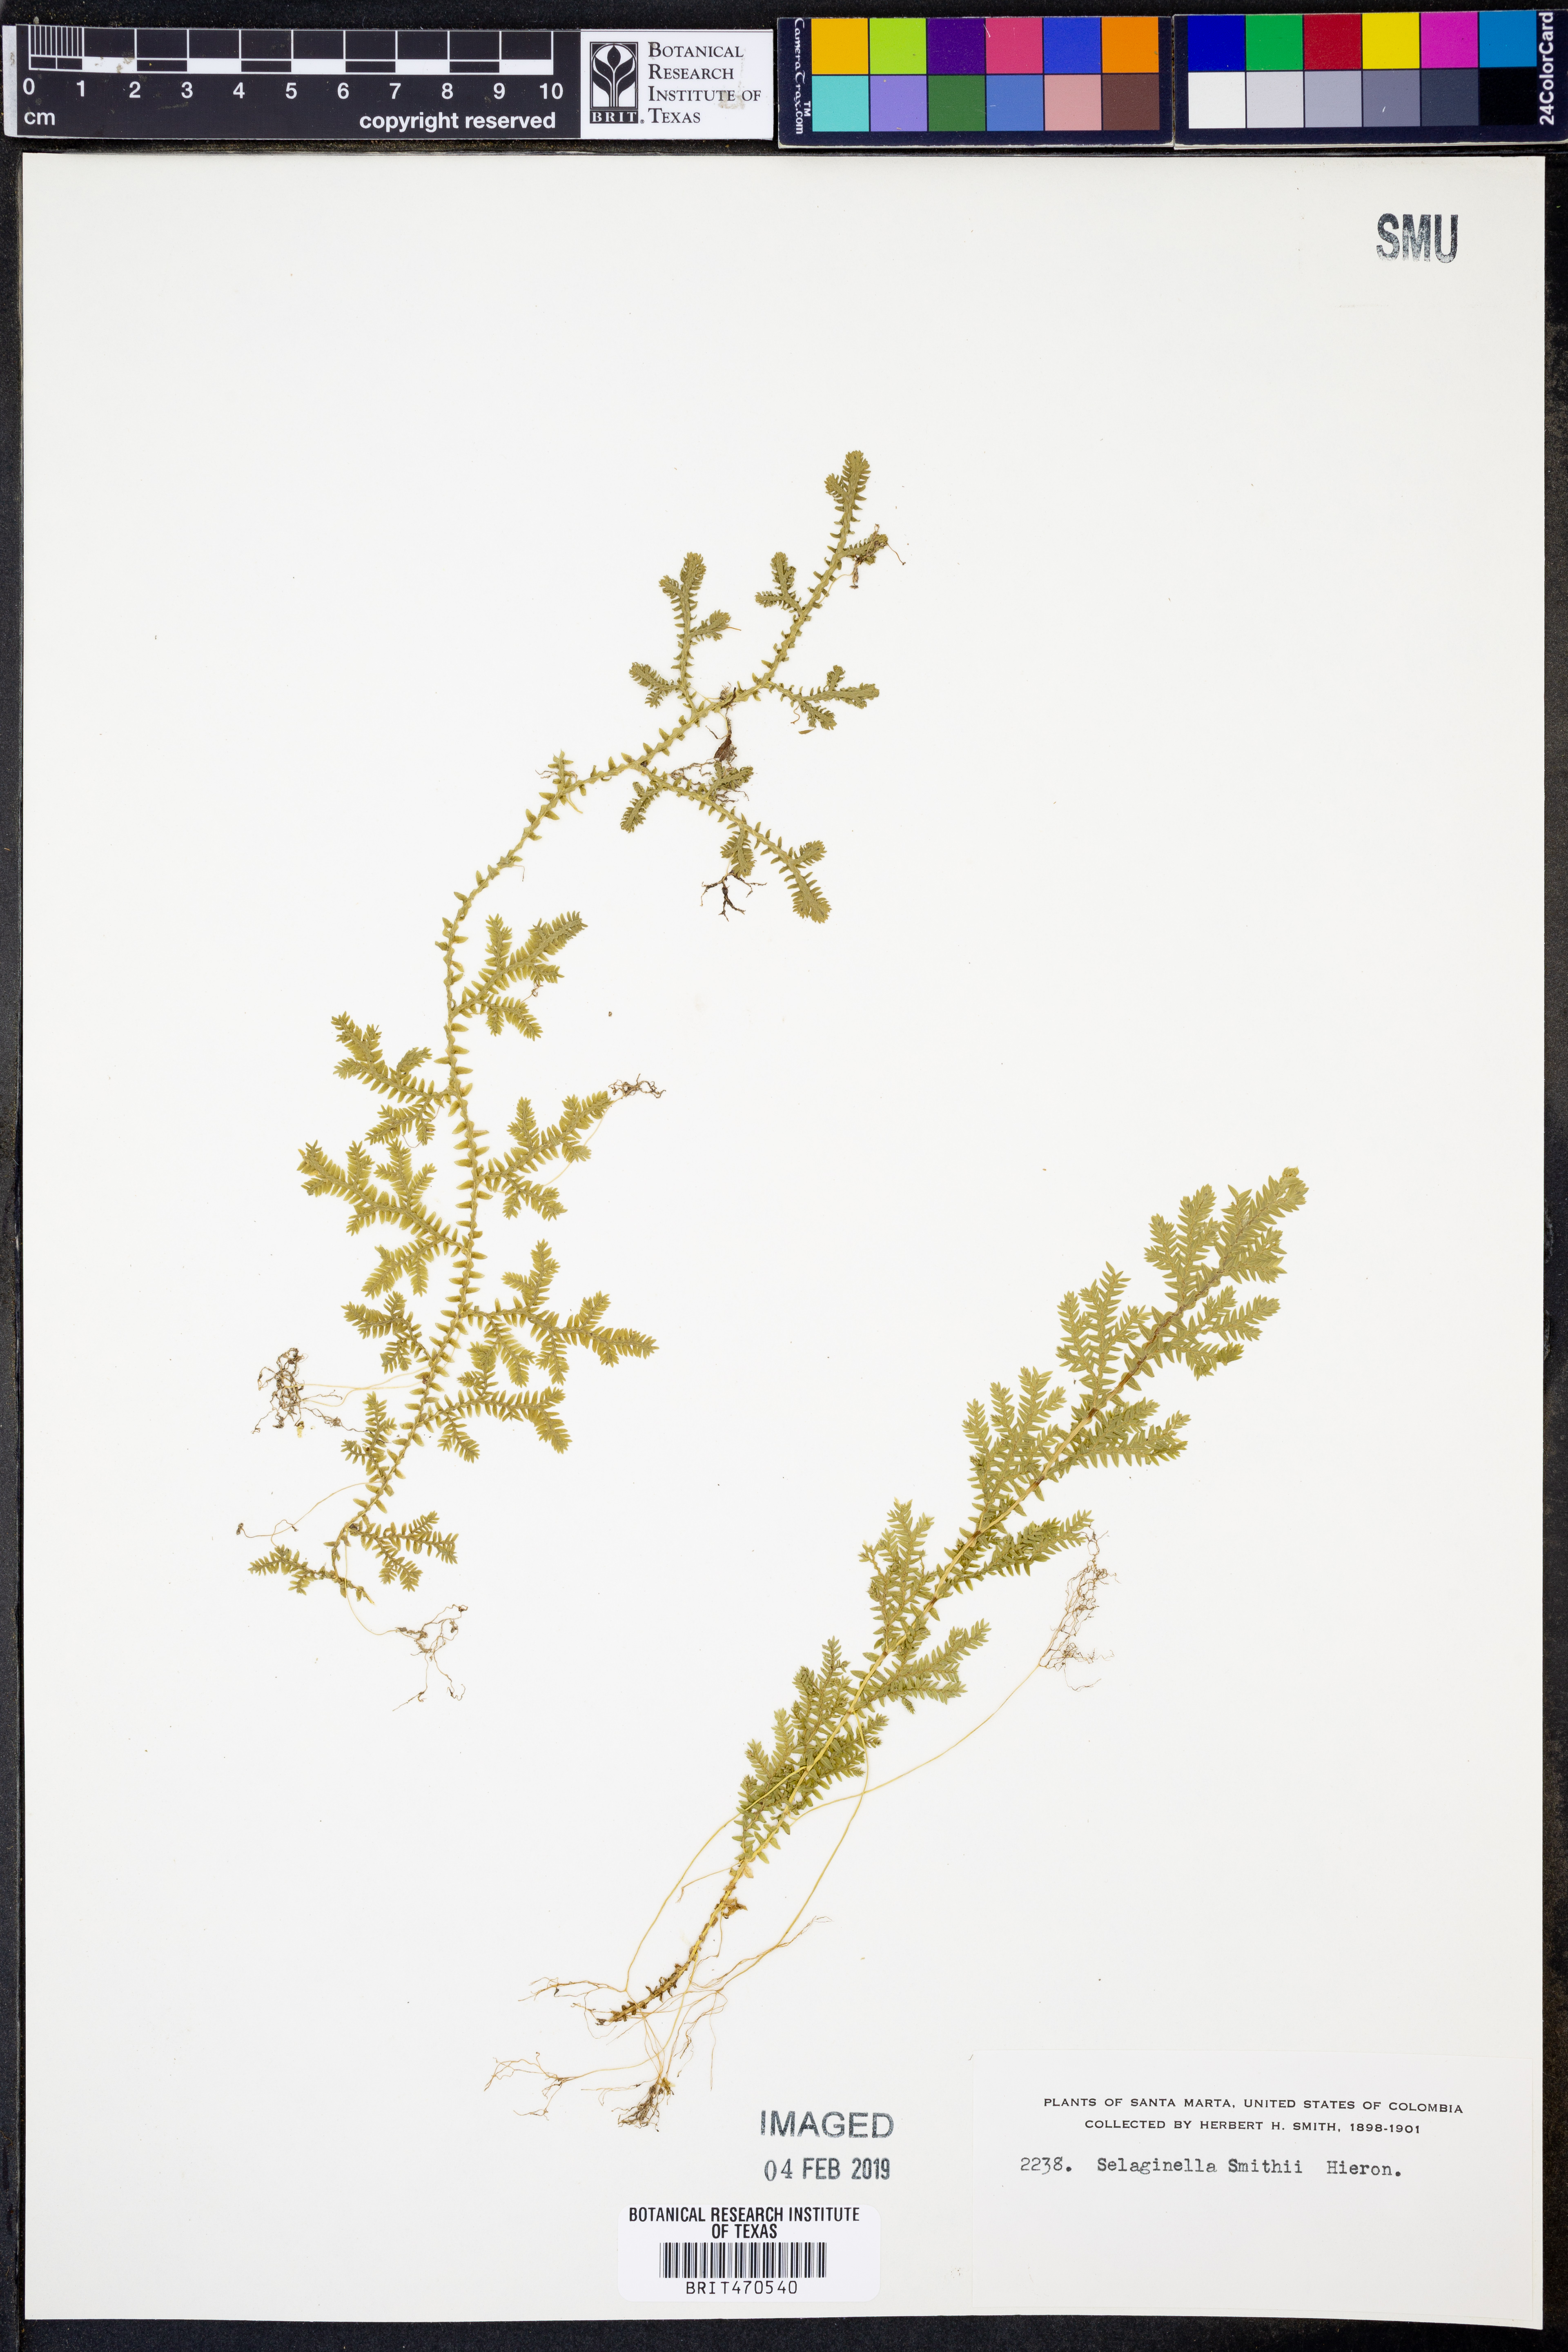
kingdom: Plantae
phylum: Tracheophyta
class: Lycopodiopsida
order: Selaginellales
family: Selaginellaceae
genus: Selaginella
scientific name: Selaginella vaginata
